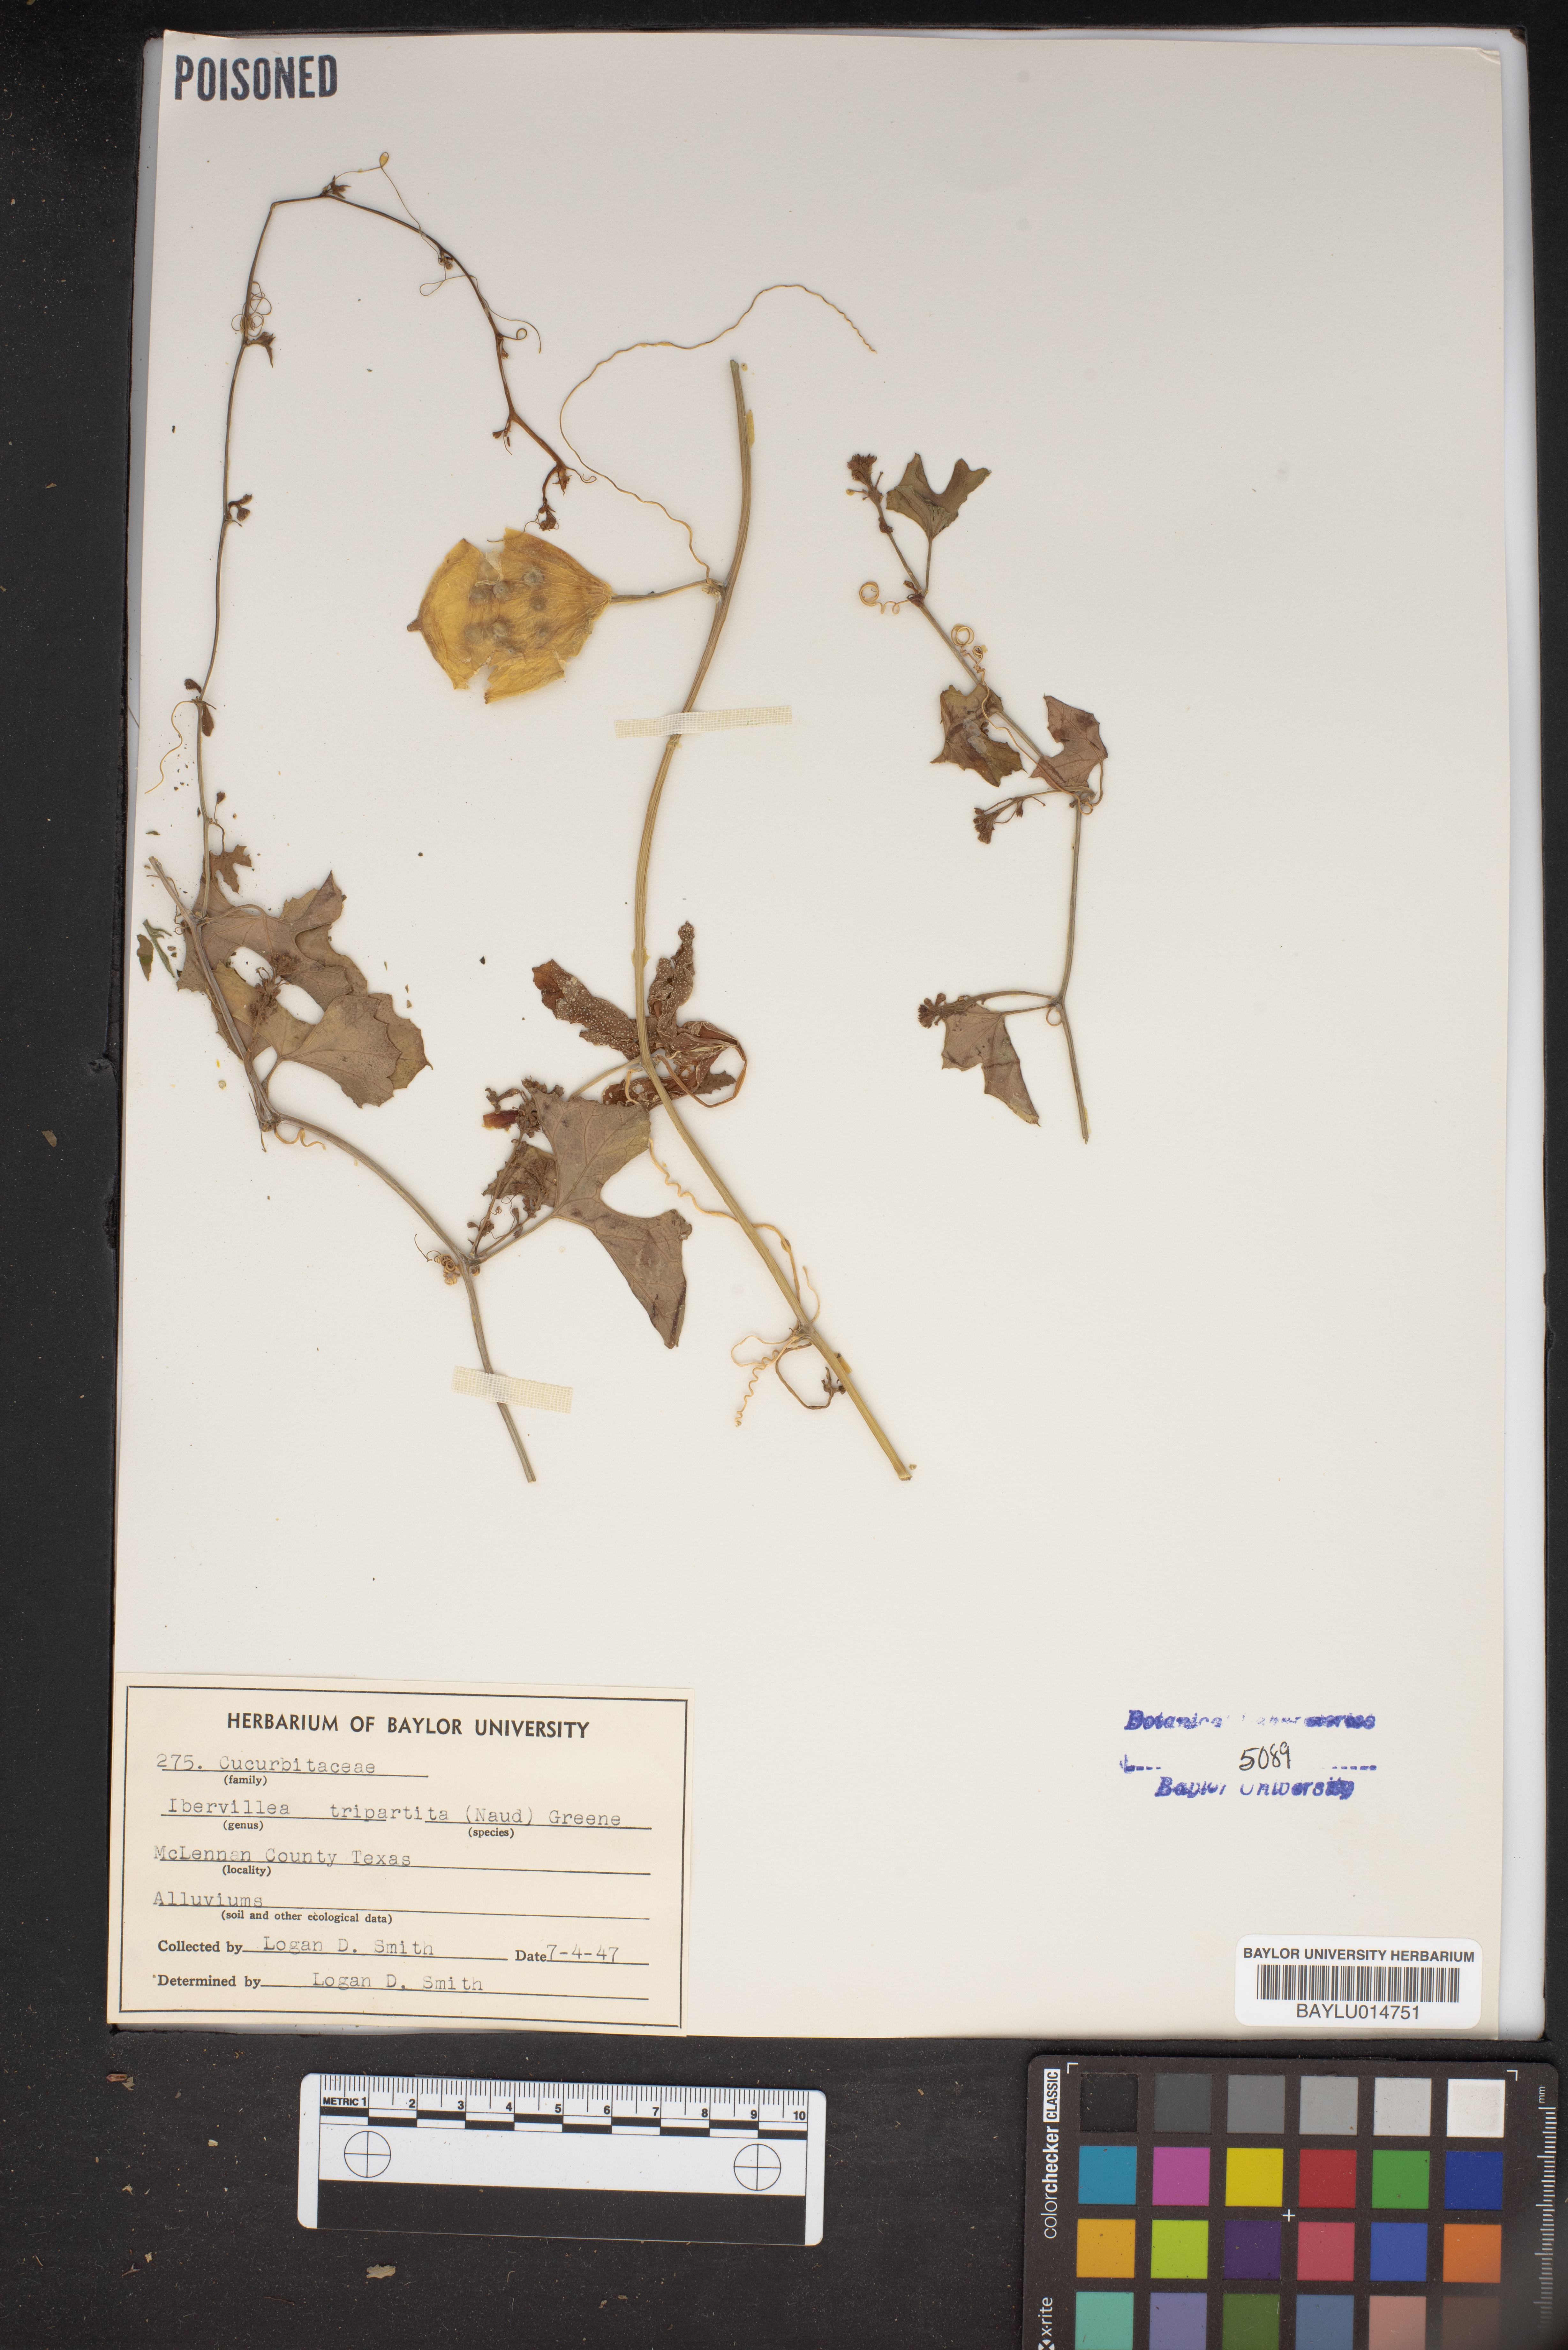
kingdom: Plantae
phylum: Tracheophyta
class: Magnoliopsida
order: Cucurbitales
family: Cucurbitaceae
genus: Ibervillea
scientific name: Ibervillea lindheimeri
